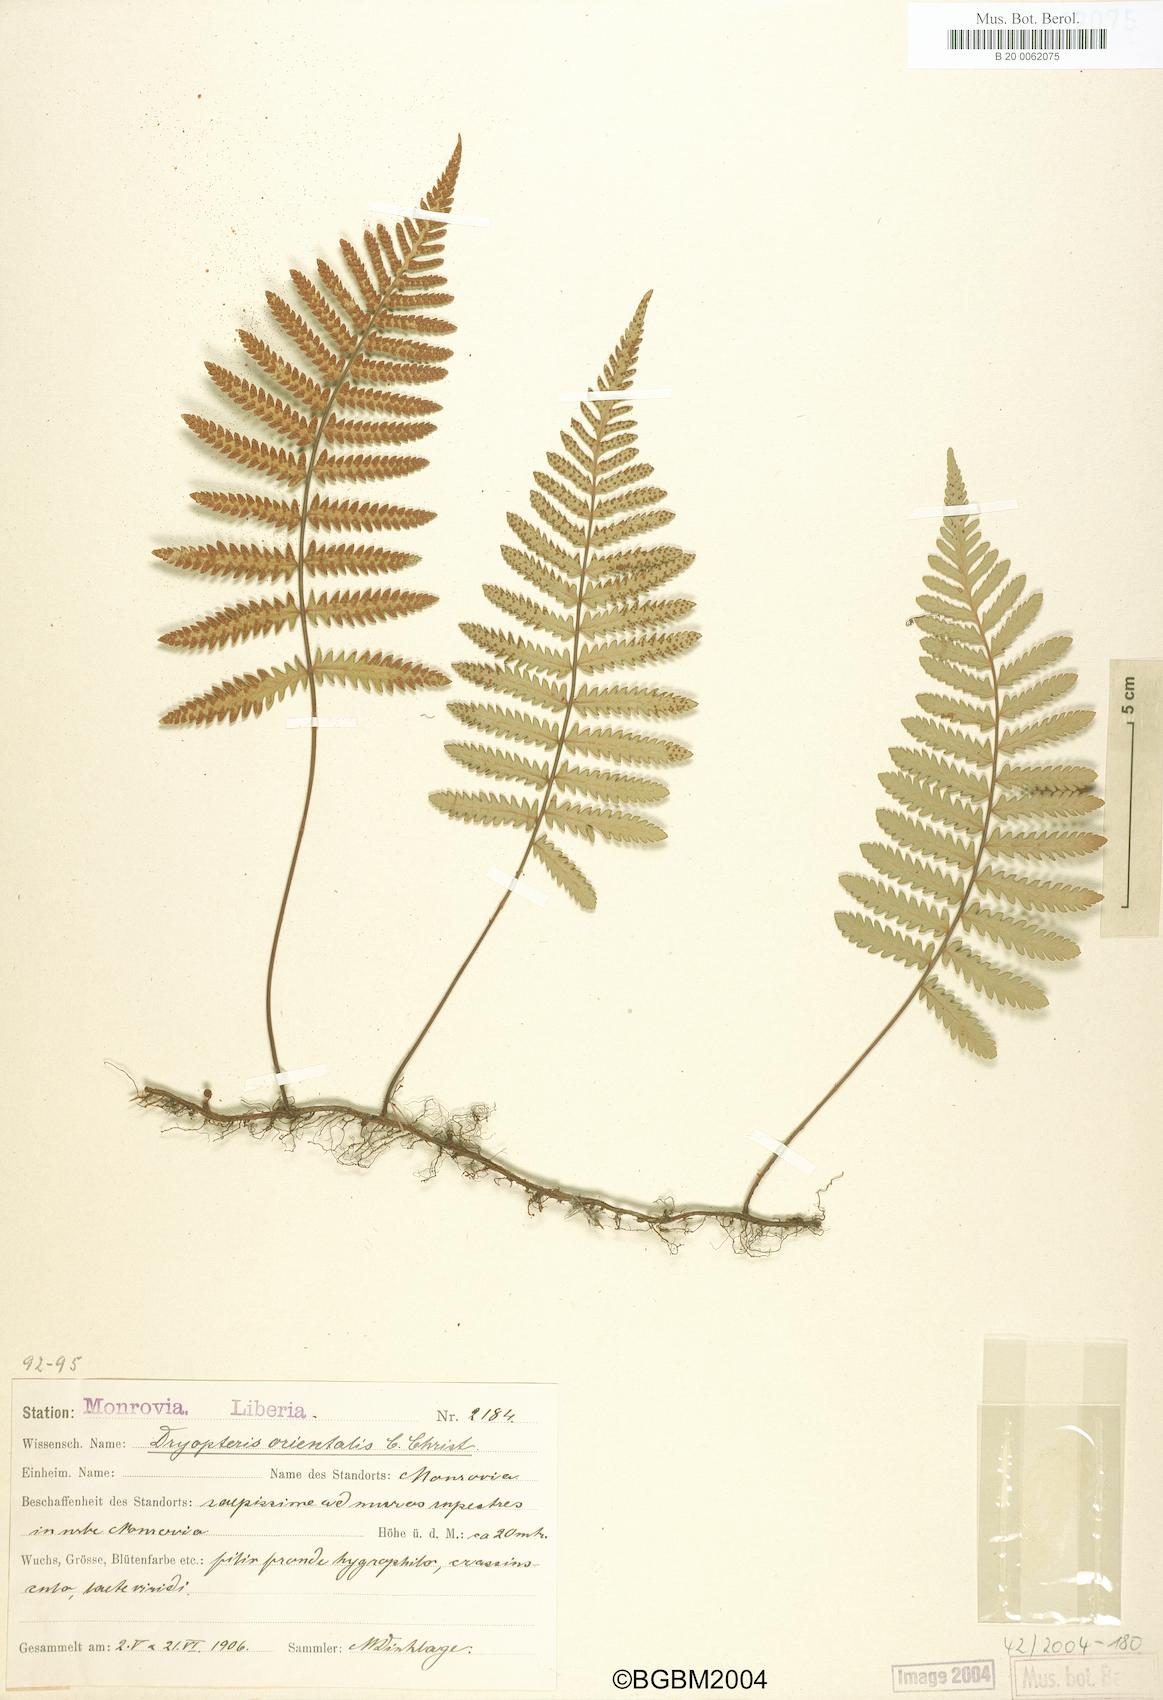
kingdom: Plantae
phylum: Tracheophyta
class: Polypodiopsida
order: Polypodiales
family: Tectariaceae
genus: Arthropteris
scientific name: Arthropteris orientalis
